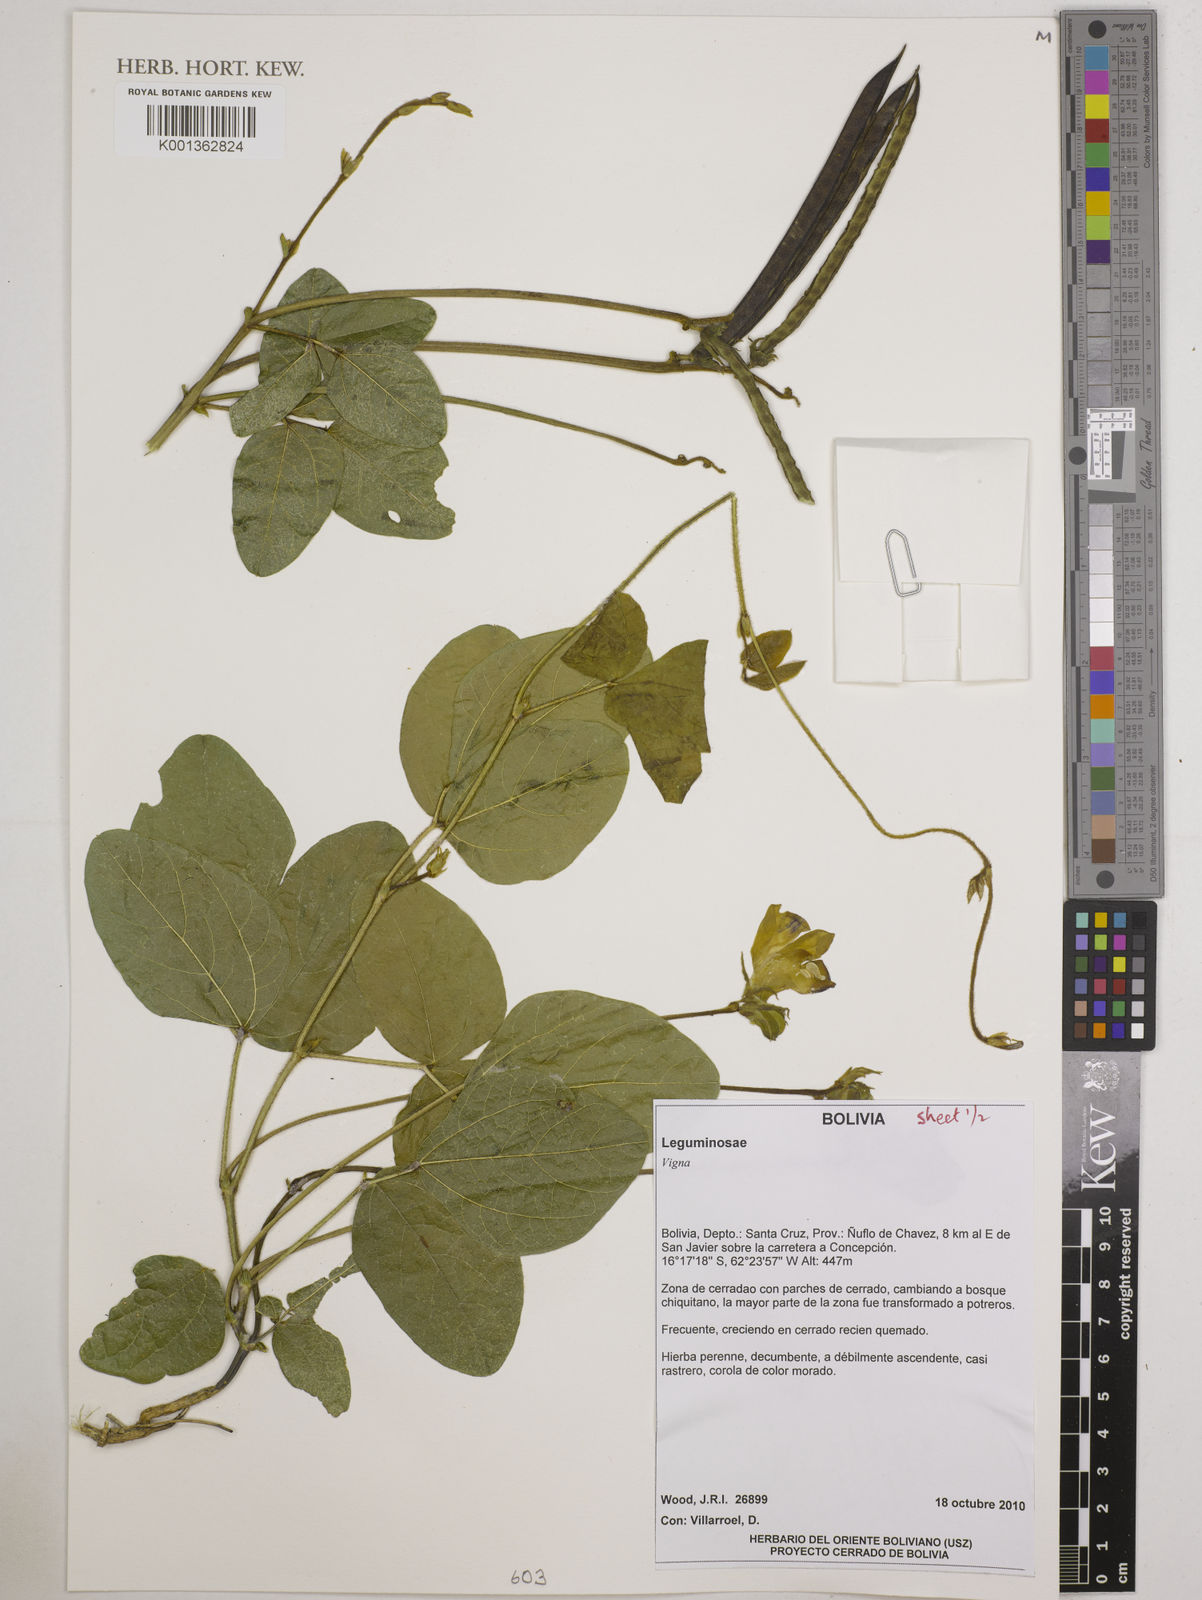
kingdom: Plantae
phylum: Tracheophyta
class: Magnoliopsida
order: Fabales
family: Fabaceae
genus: Vigna
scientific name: Vigna
